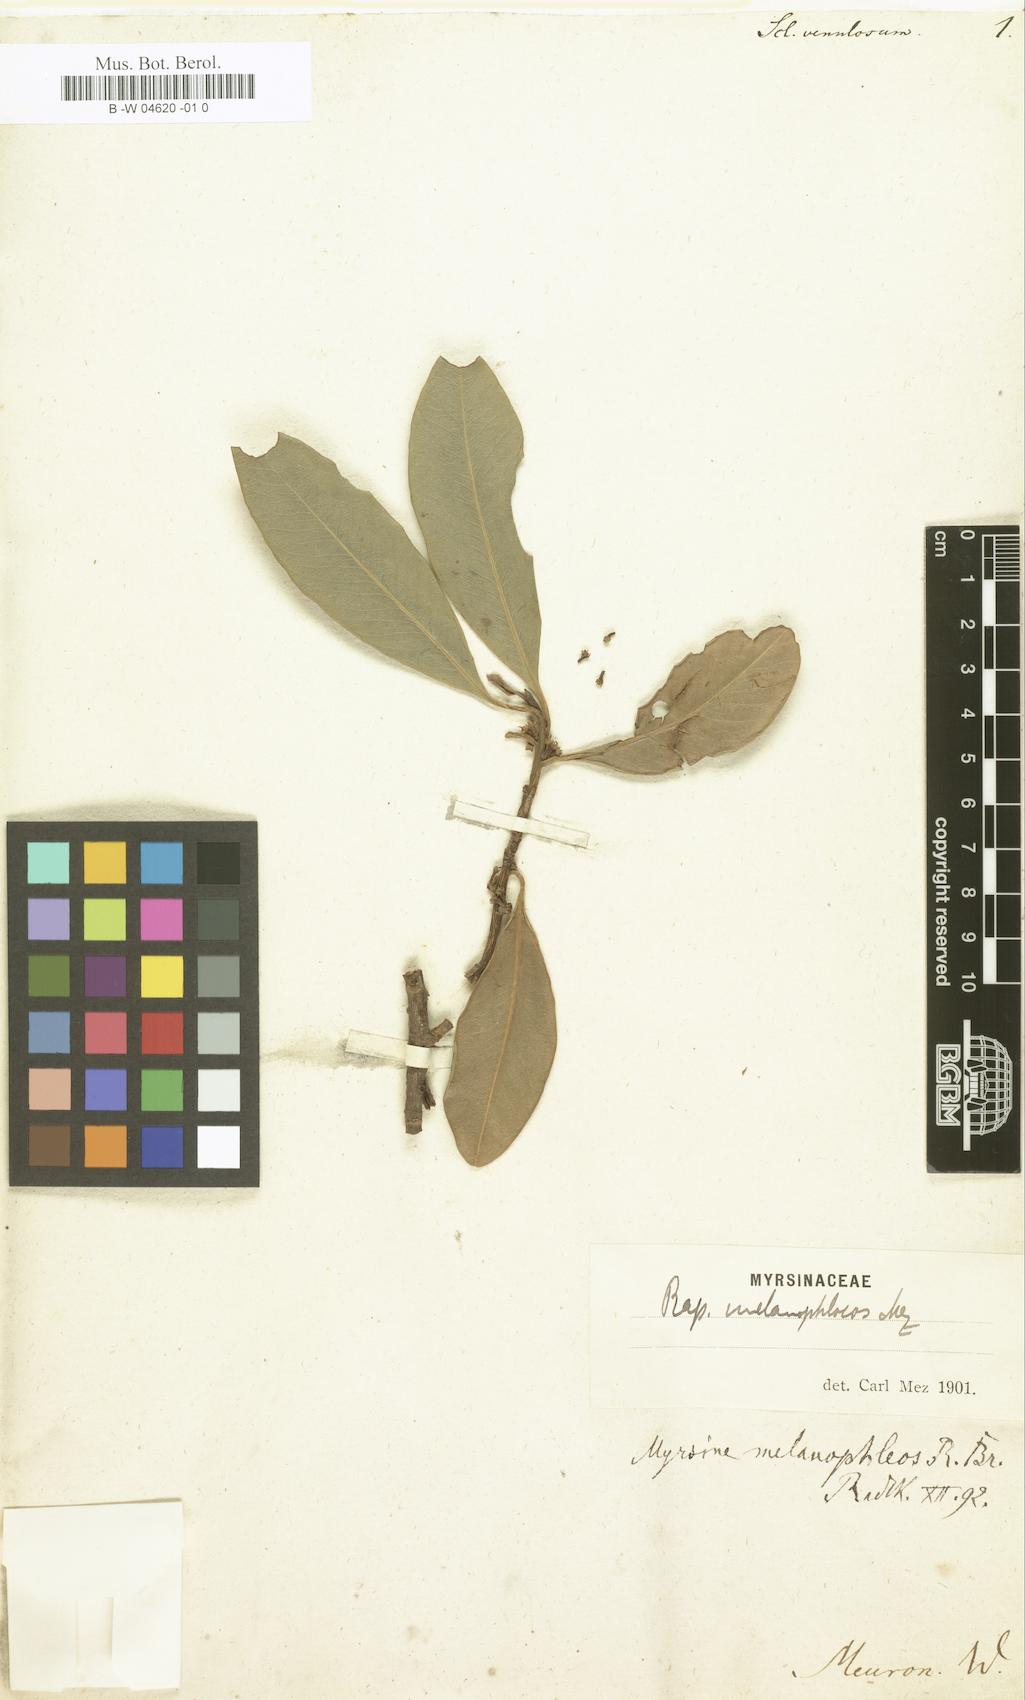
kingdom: Plantae
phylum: Tracheophyta
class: Magnoliopsida
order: Ericales
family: Sapotaceae
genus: Scleroxylon
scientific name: Scleroxylon
